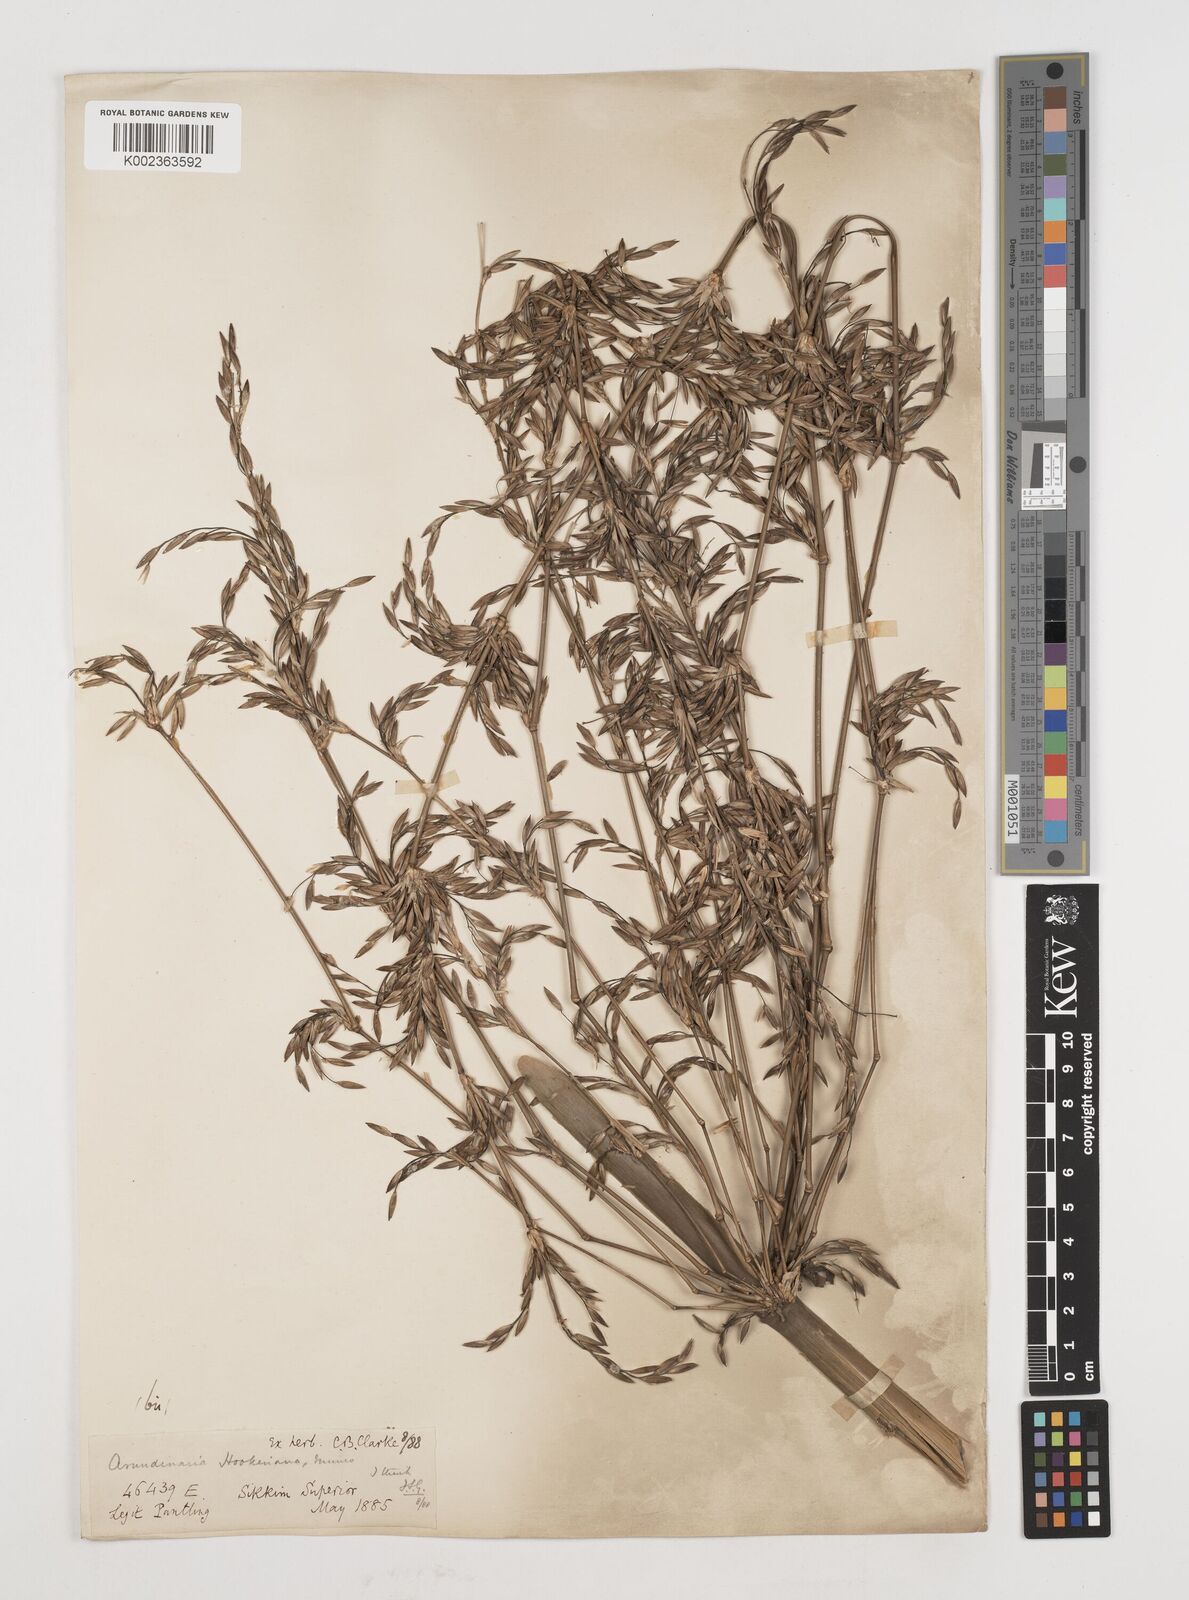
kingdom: Plantae
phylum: Tracheophyta
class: Liliopsida
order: Poales
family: Poaceae
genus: Himalayacalamus
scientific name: Himalayacalamus hookerianus
